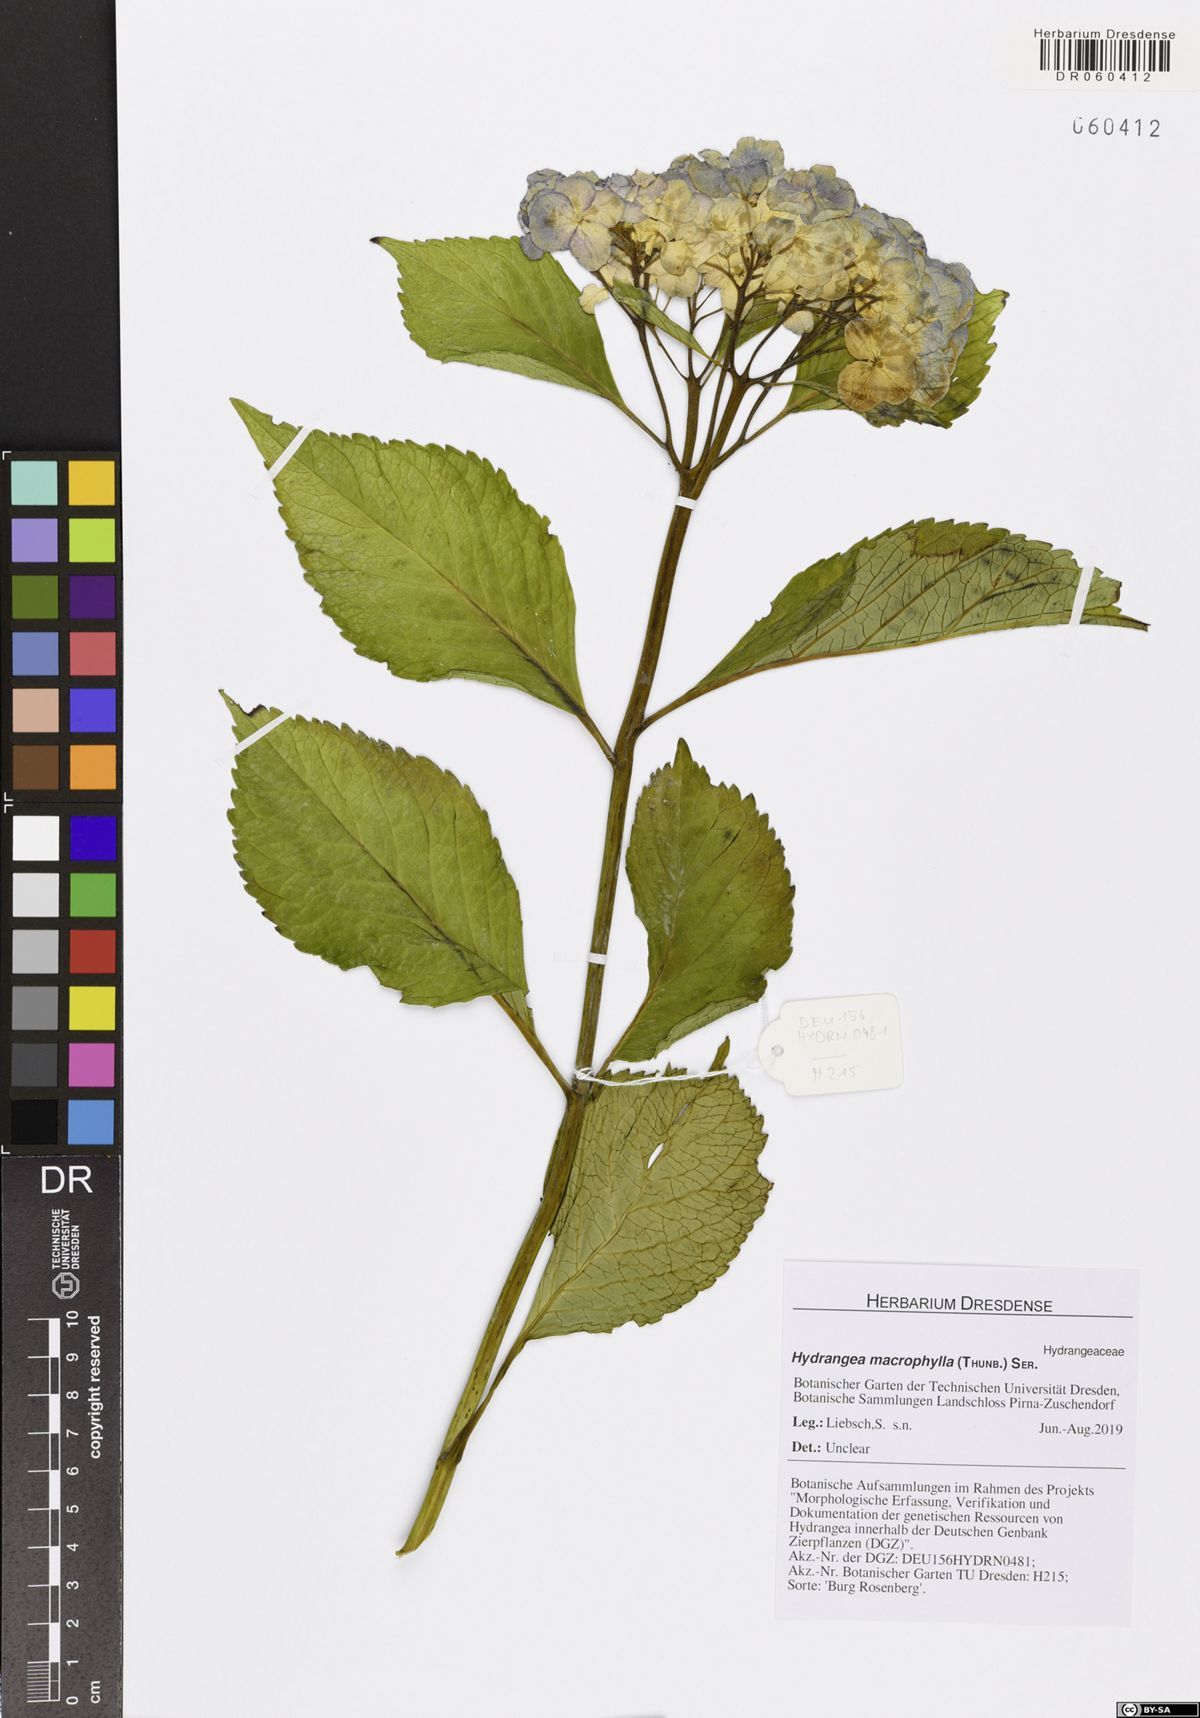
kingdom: Plantae
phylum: Tracheophyta
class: Magnoliopsida
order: Cornales
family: Hydrangeaceae
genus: Hydrangea
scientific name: Hydrangea macrophylla
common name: Hydrangea
